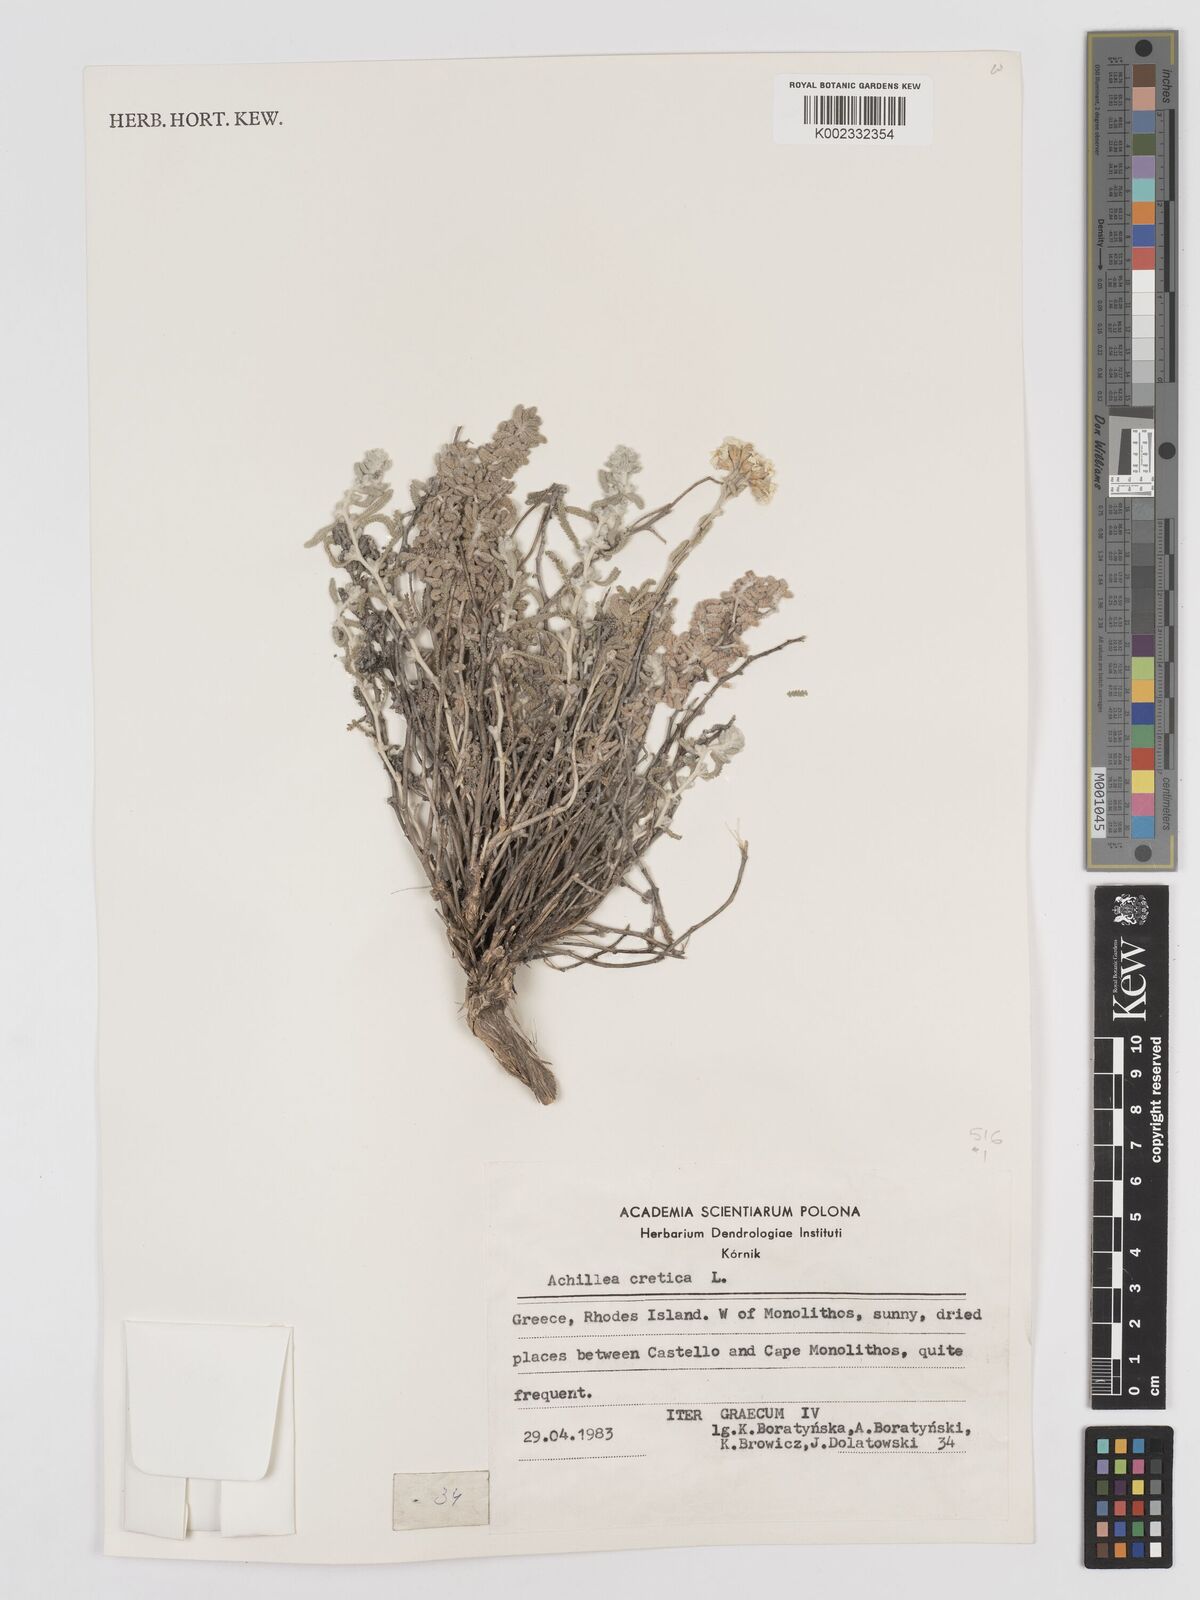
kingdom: Plantae
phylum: Tracheophyta
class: Magnoliopsida
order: Asterales
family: Asteraceae
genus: Achillea
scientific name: Achillea cretica
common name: Chamomile-leaved lavender-cotton
